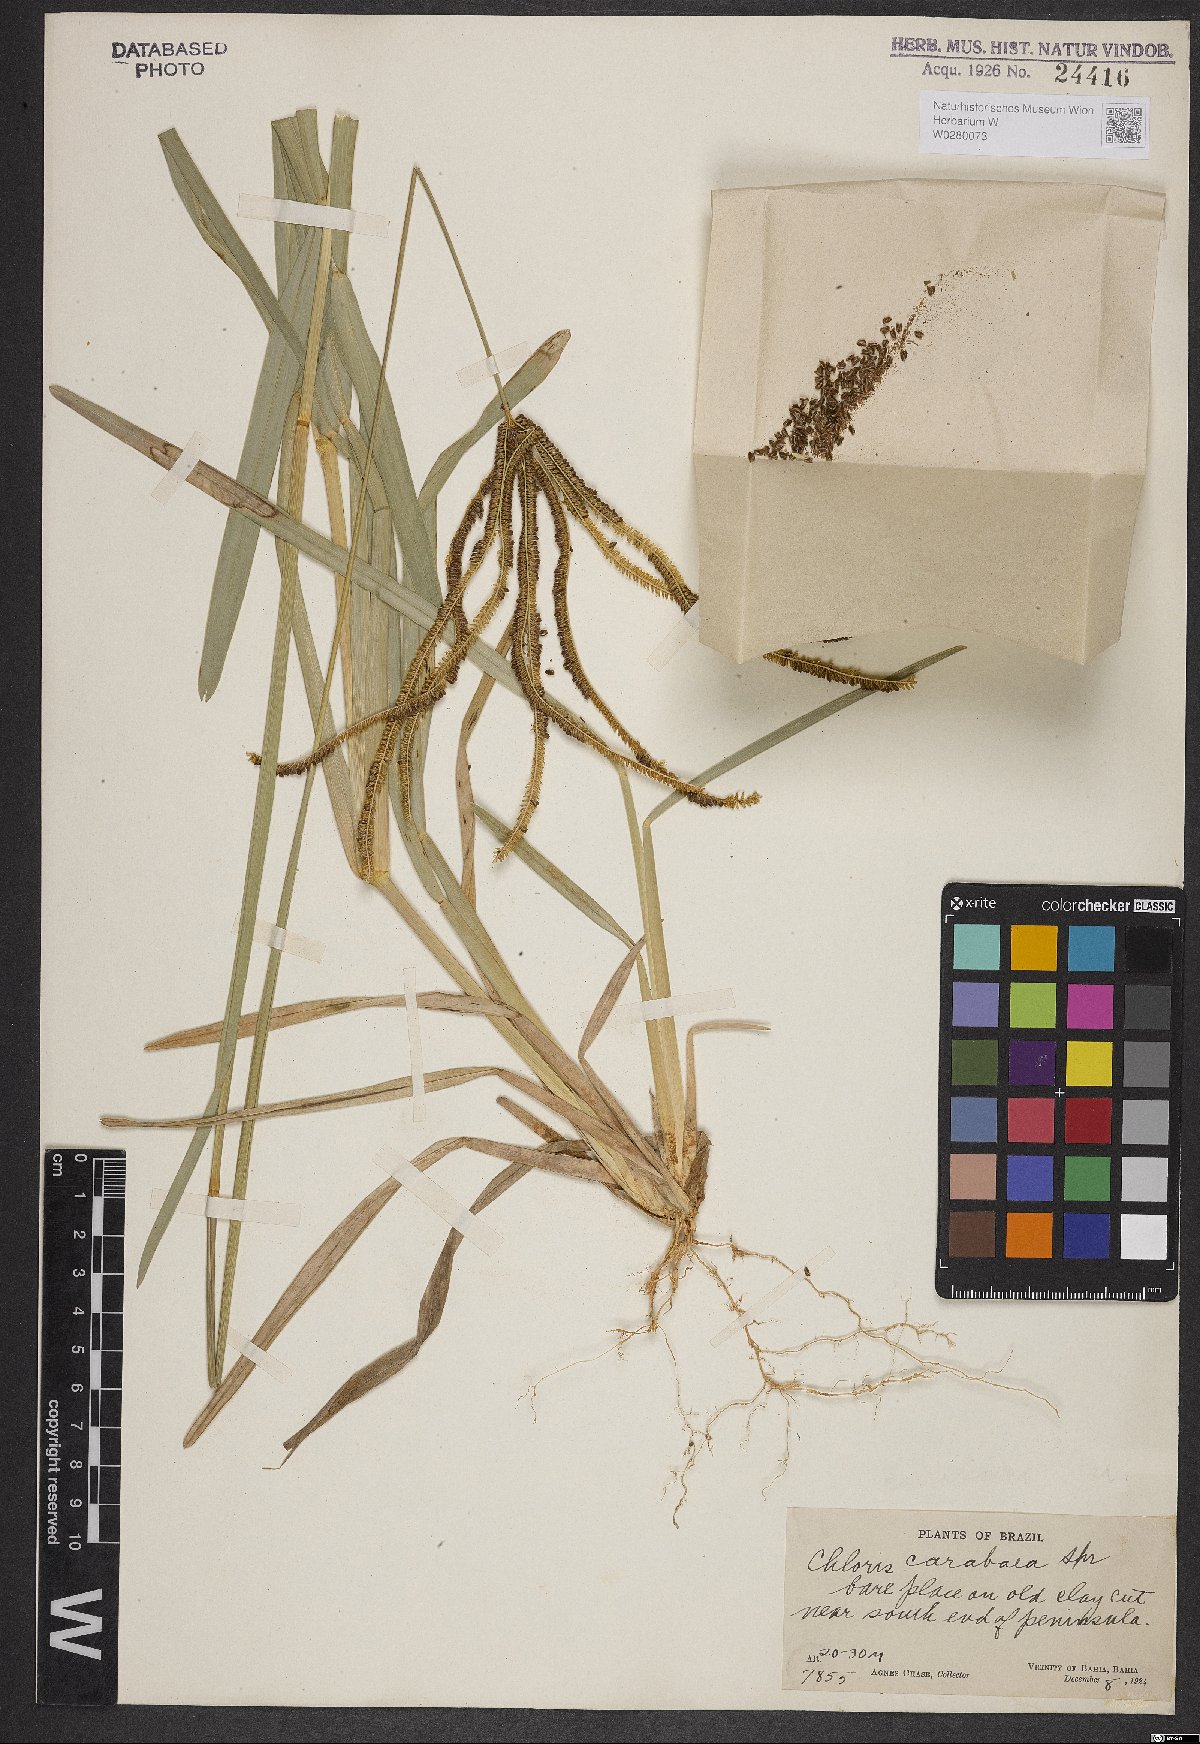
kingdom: Plantae
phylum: Tracheophyta
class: Liliopsida
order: Poales
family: Poaceae
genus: Eustachys
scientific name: Eustachys caribaea
